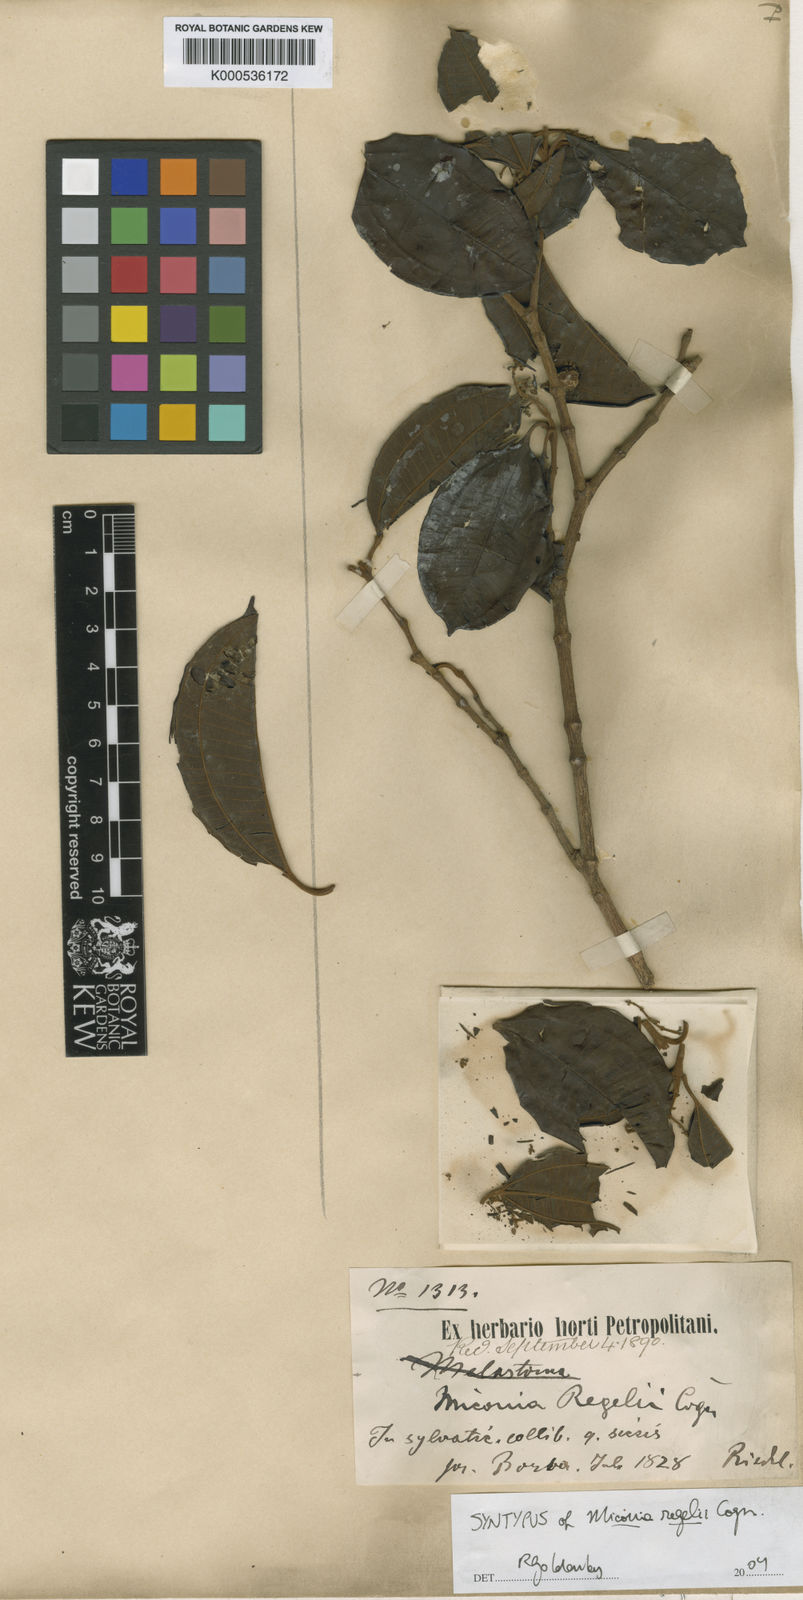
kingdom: Plantae
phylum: Tracheophyta
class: Magnoliopsida
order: Myrtales
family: Melastomataceae
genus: Miconia
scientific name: Miconia regelii
